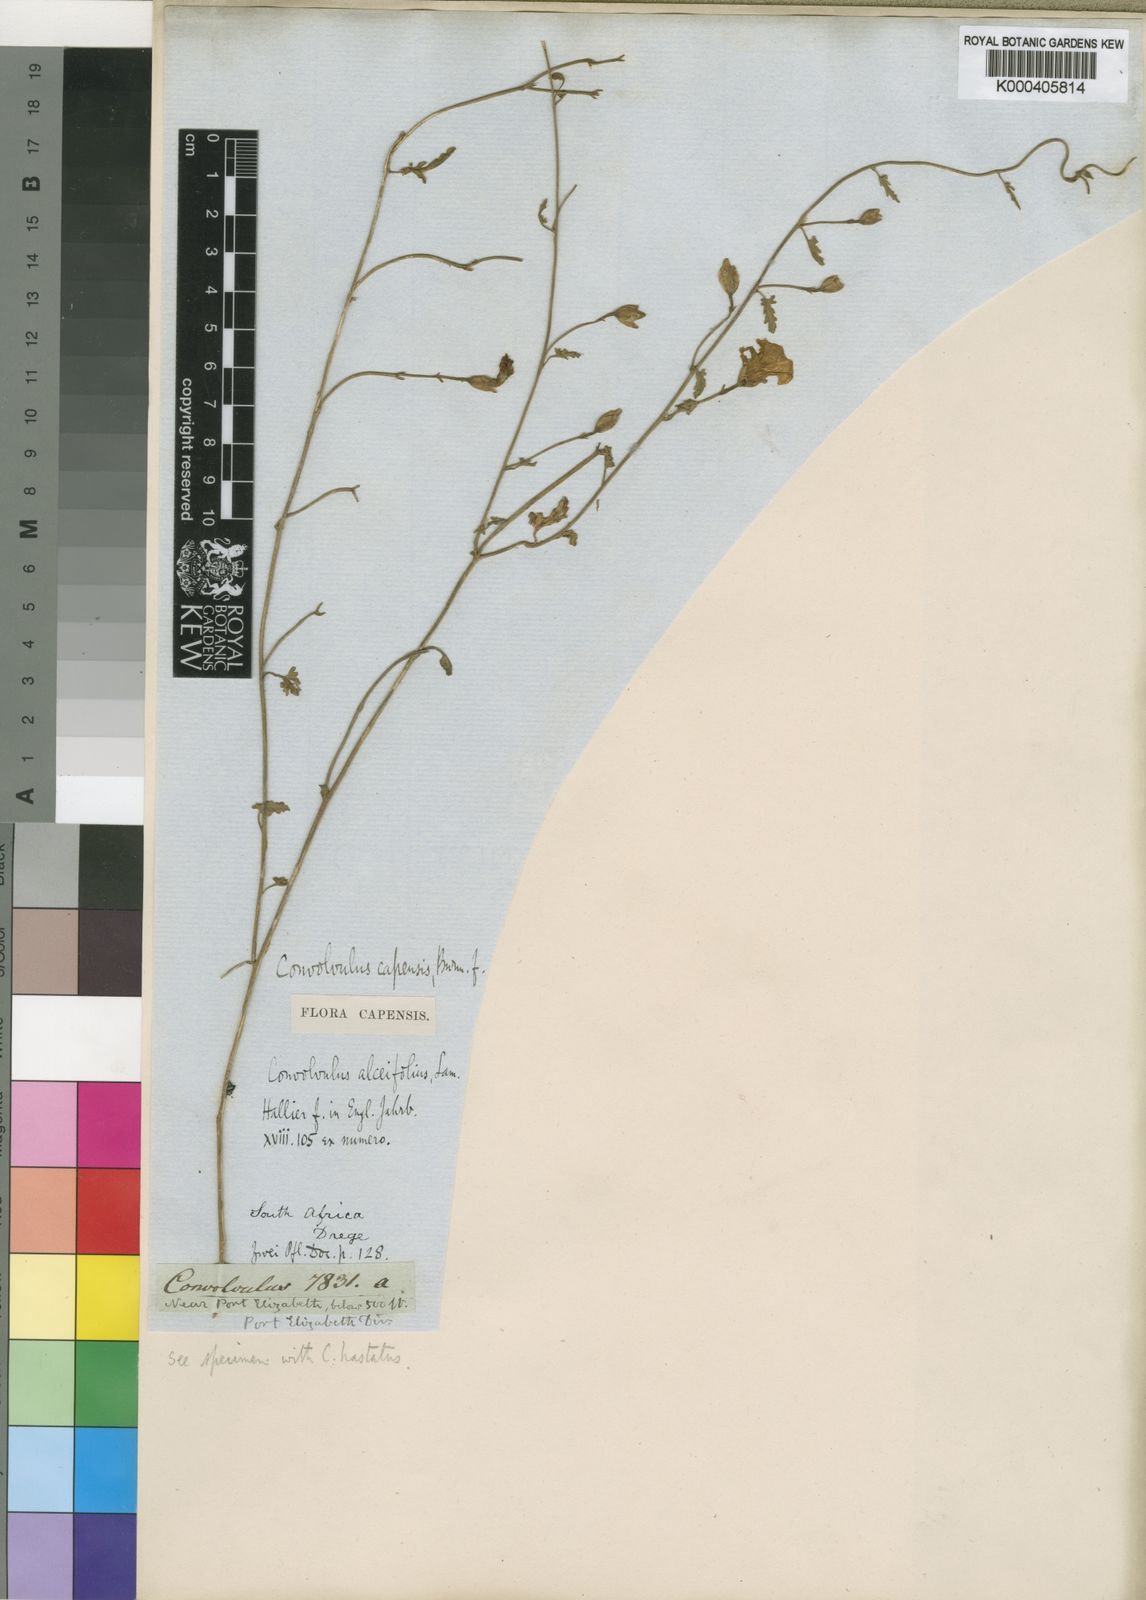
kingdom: Plantae
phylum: Tracheophyta
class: Magnoliopsida
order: Solanales
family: Convolvulaceae
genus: Convolvulus
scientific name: Convolvulus capensis
